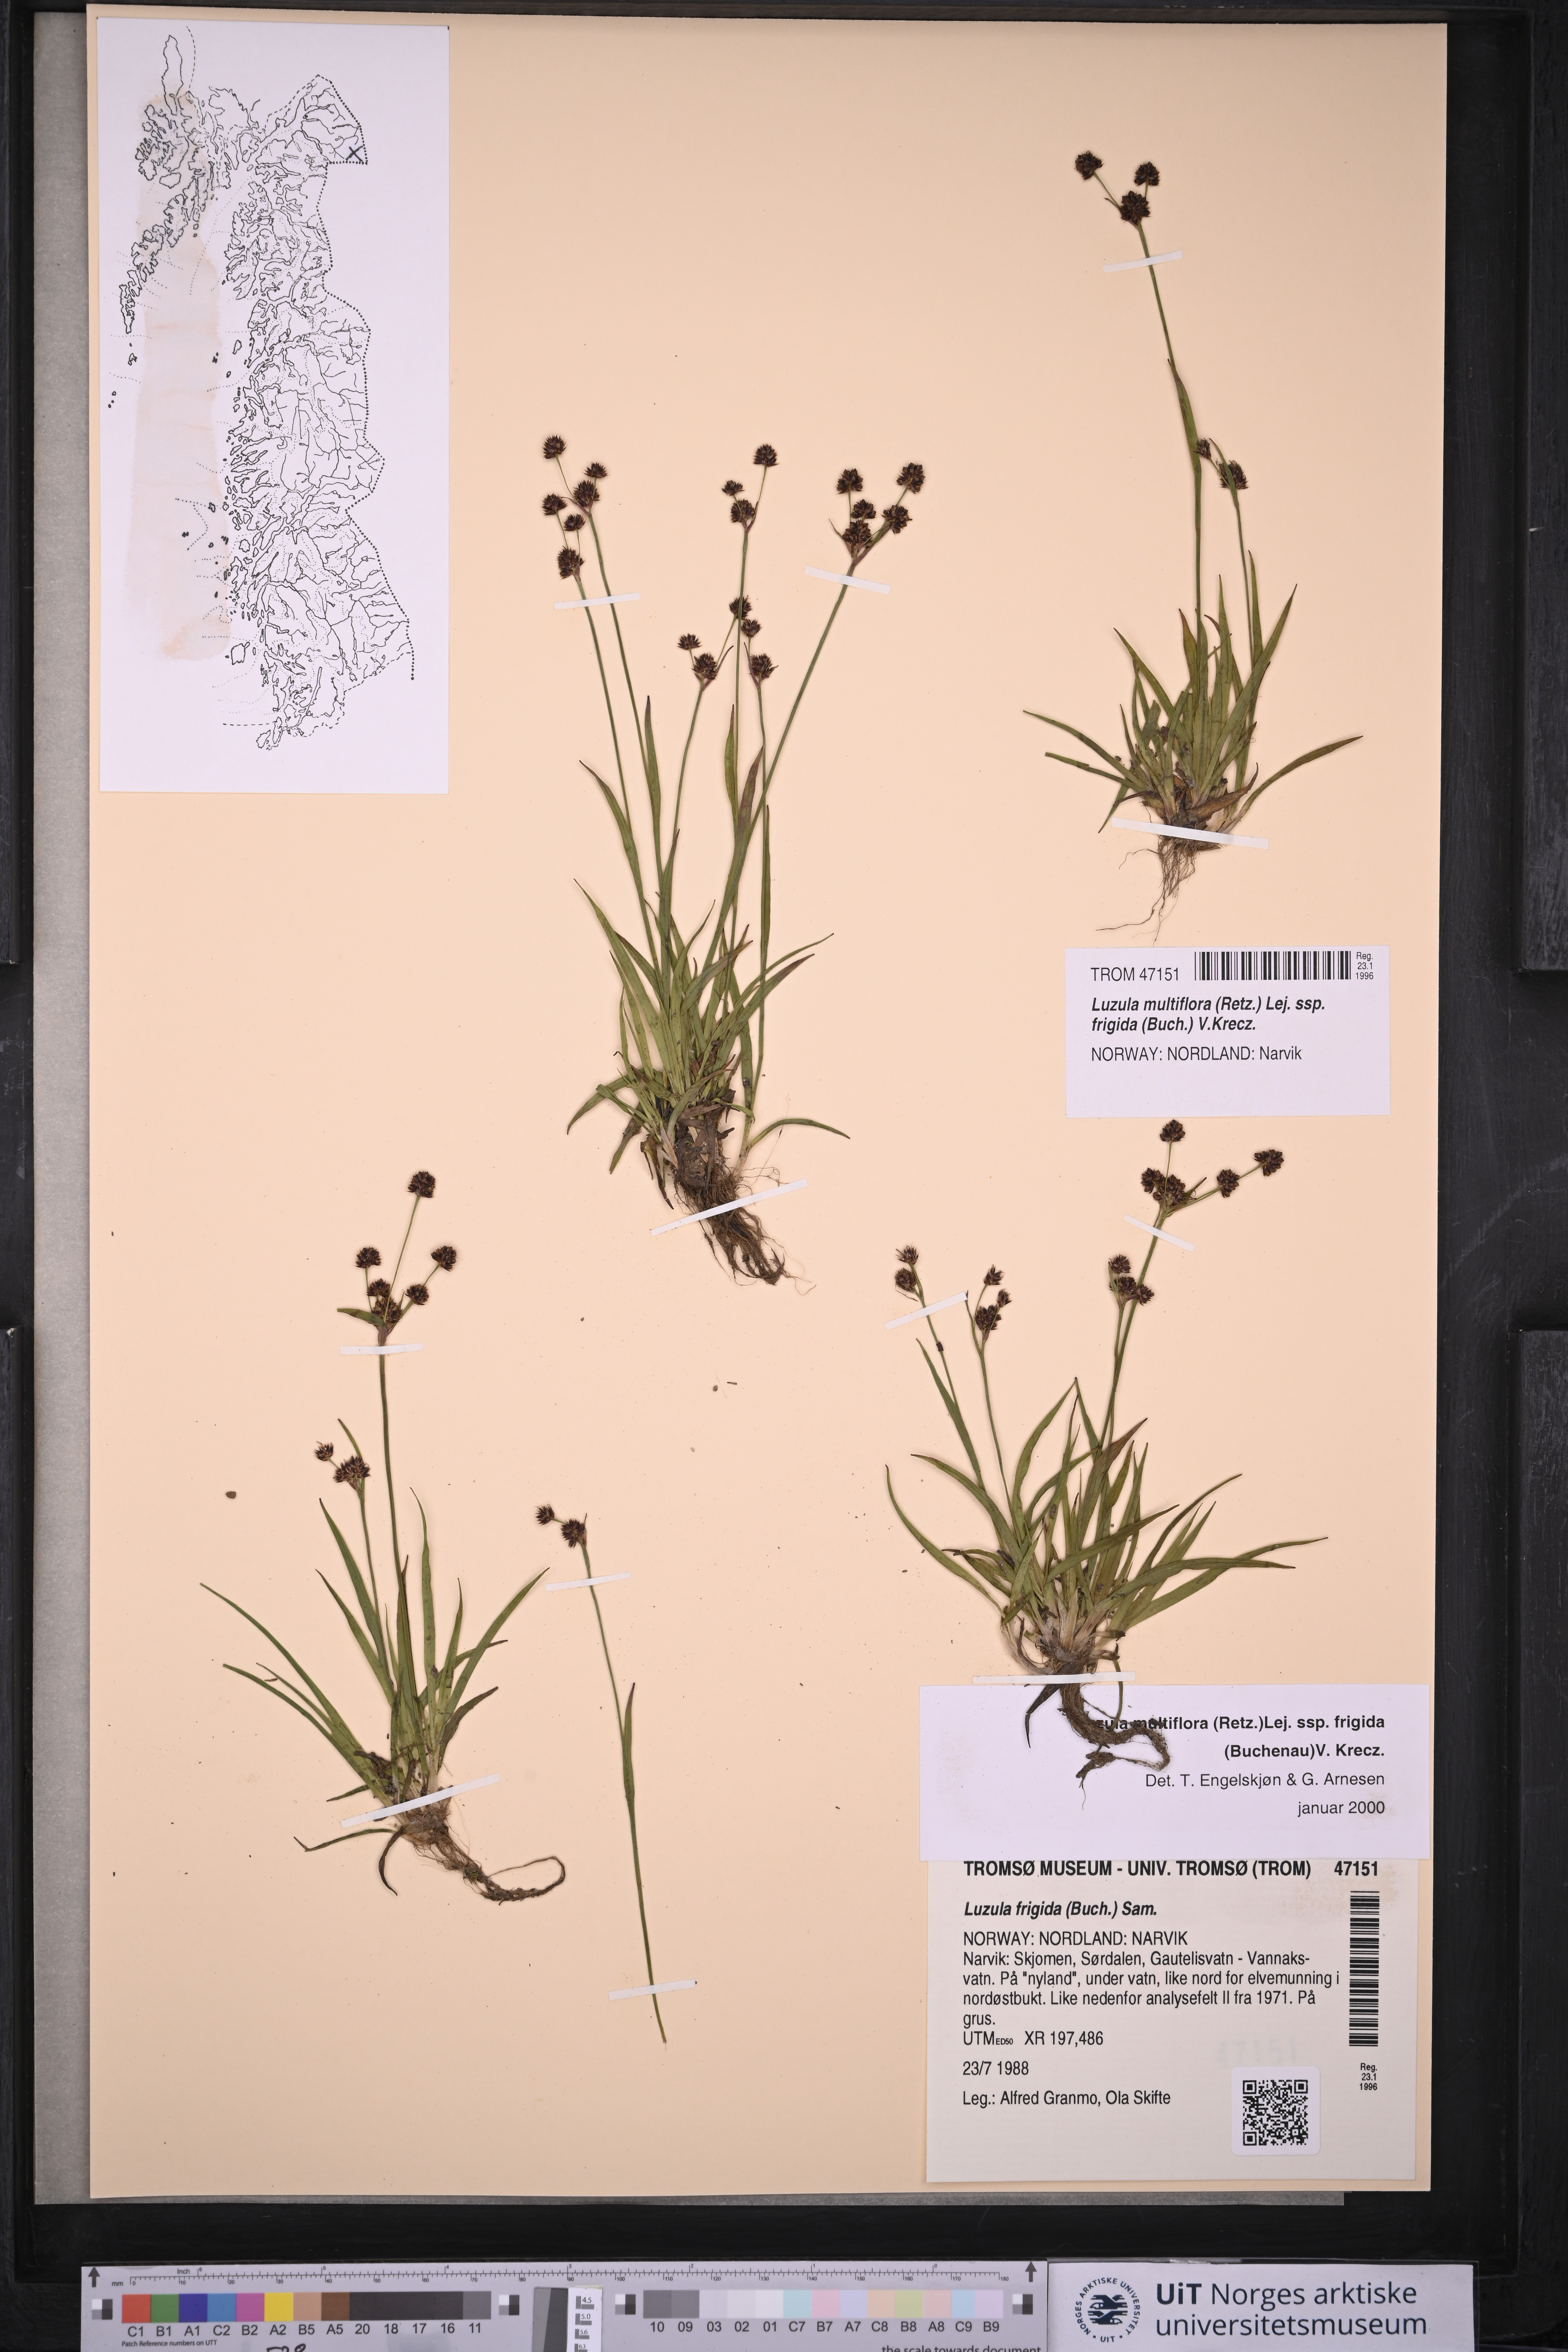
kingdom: Plantae
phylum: Tracheophyta
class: Liliopsida
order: Poales
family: Juncaceae
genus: Luzula
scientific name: Luzula multiflora
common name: Heath wood-rush
